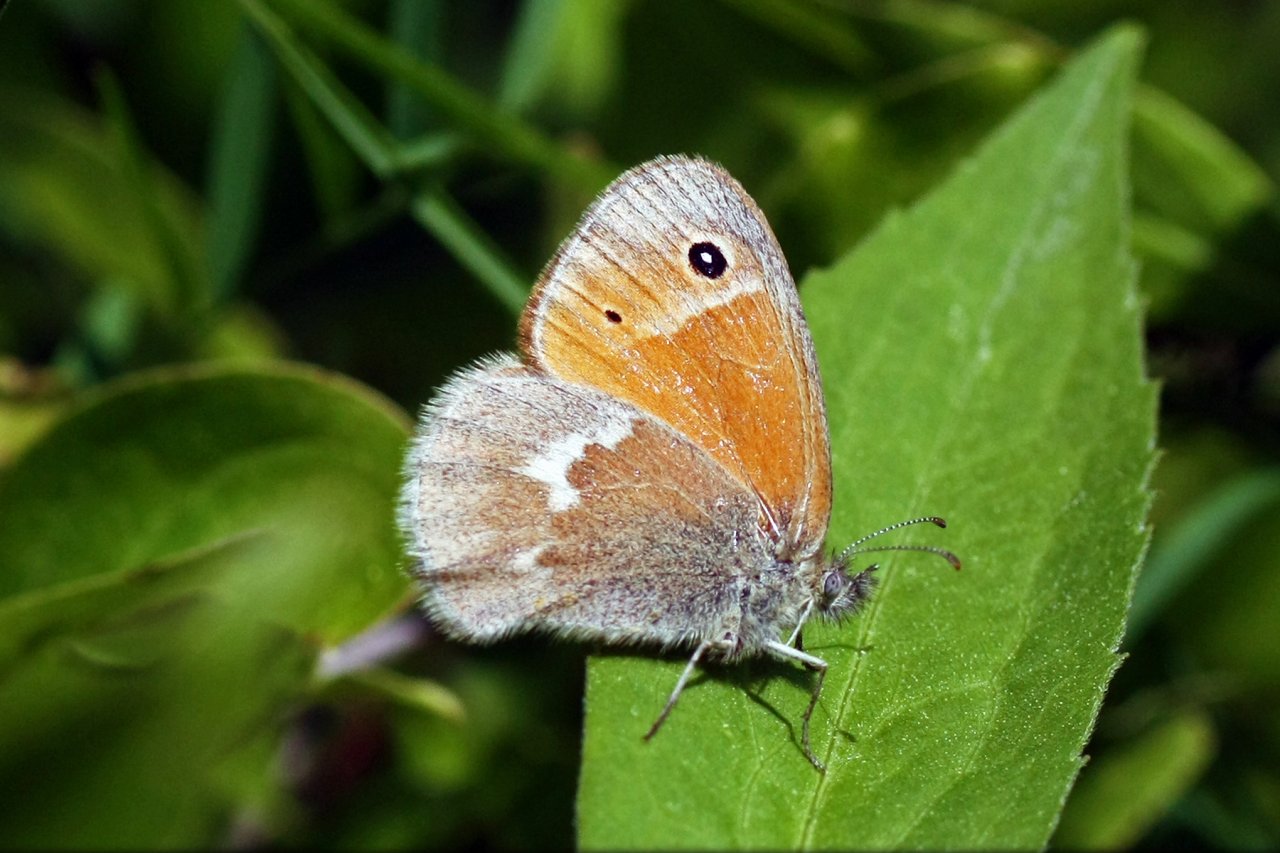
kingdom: Animalia
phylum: Arthropoda
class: Insecta
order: Lepidoptera
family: Nymphalidae
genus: Coenonympha
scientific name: Coenonympha tullia
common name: Large Heath
